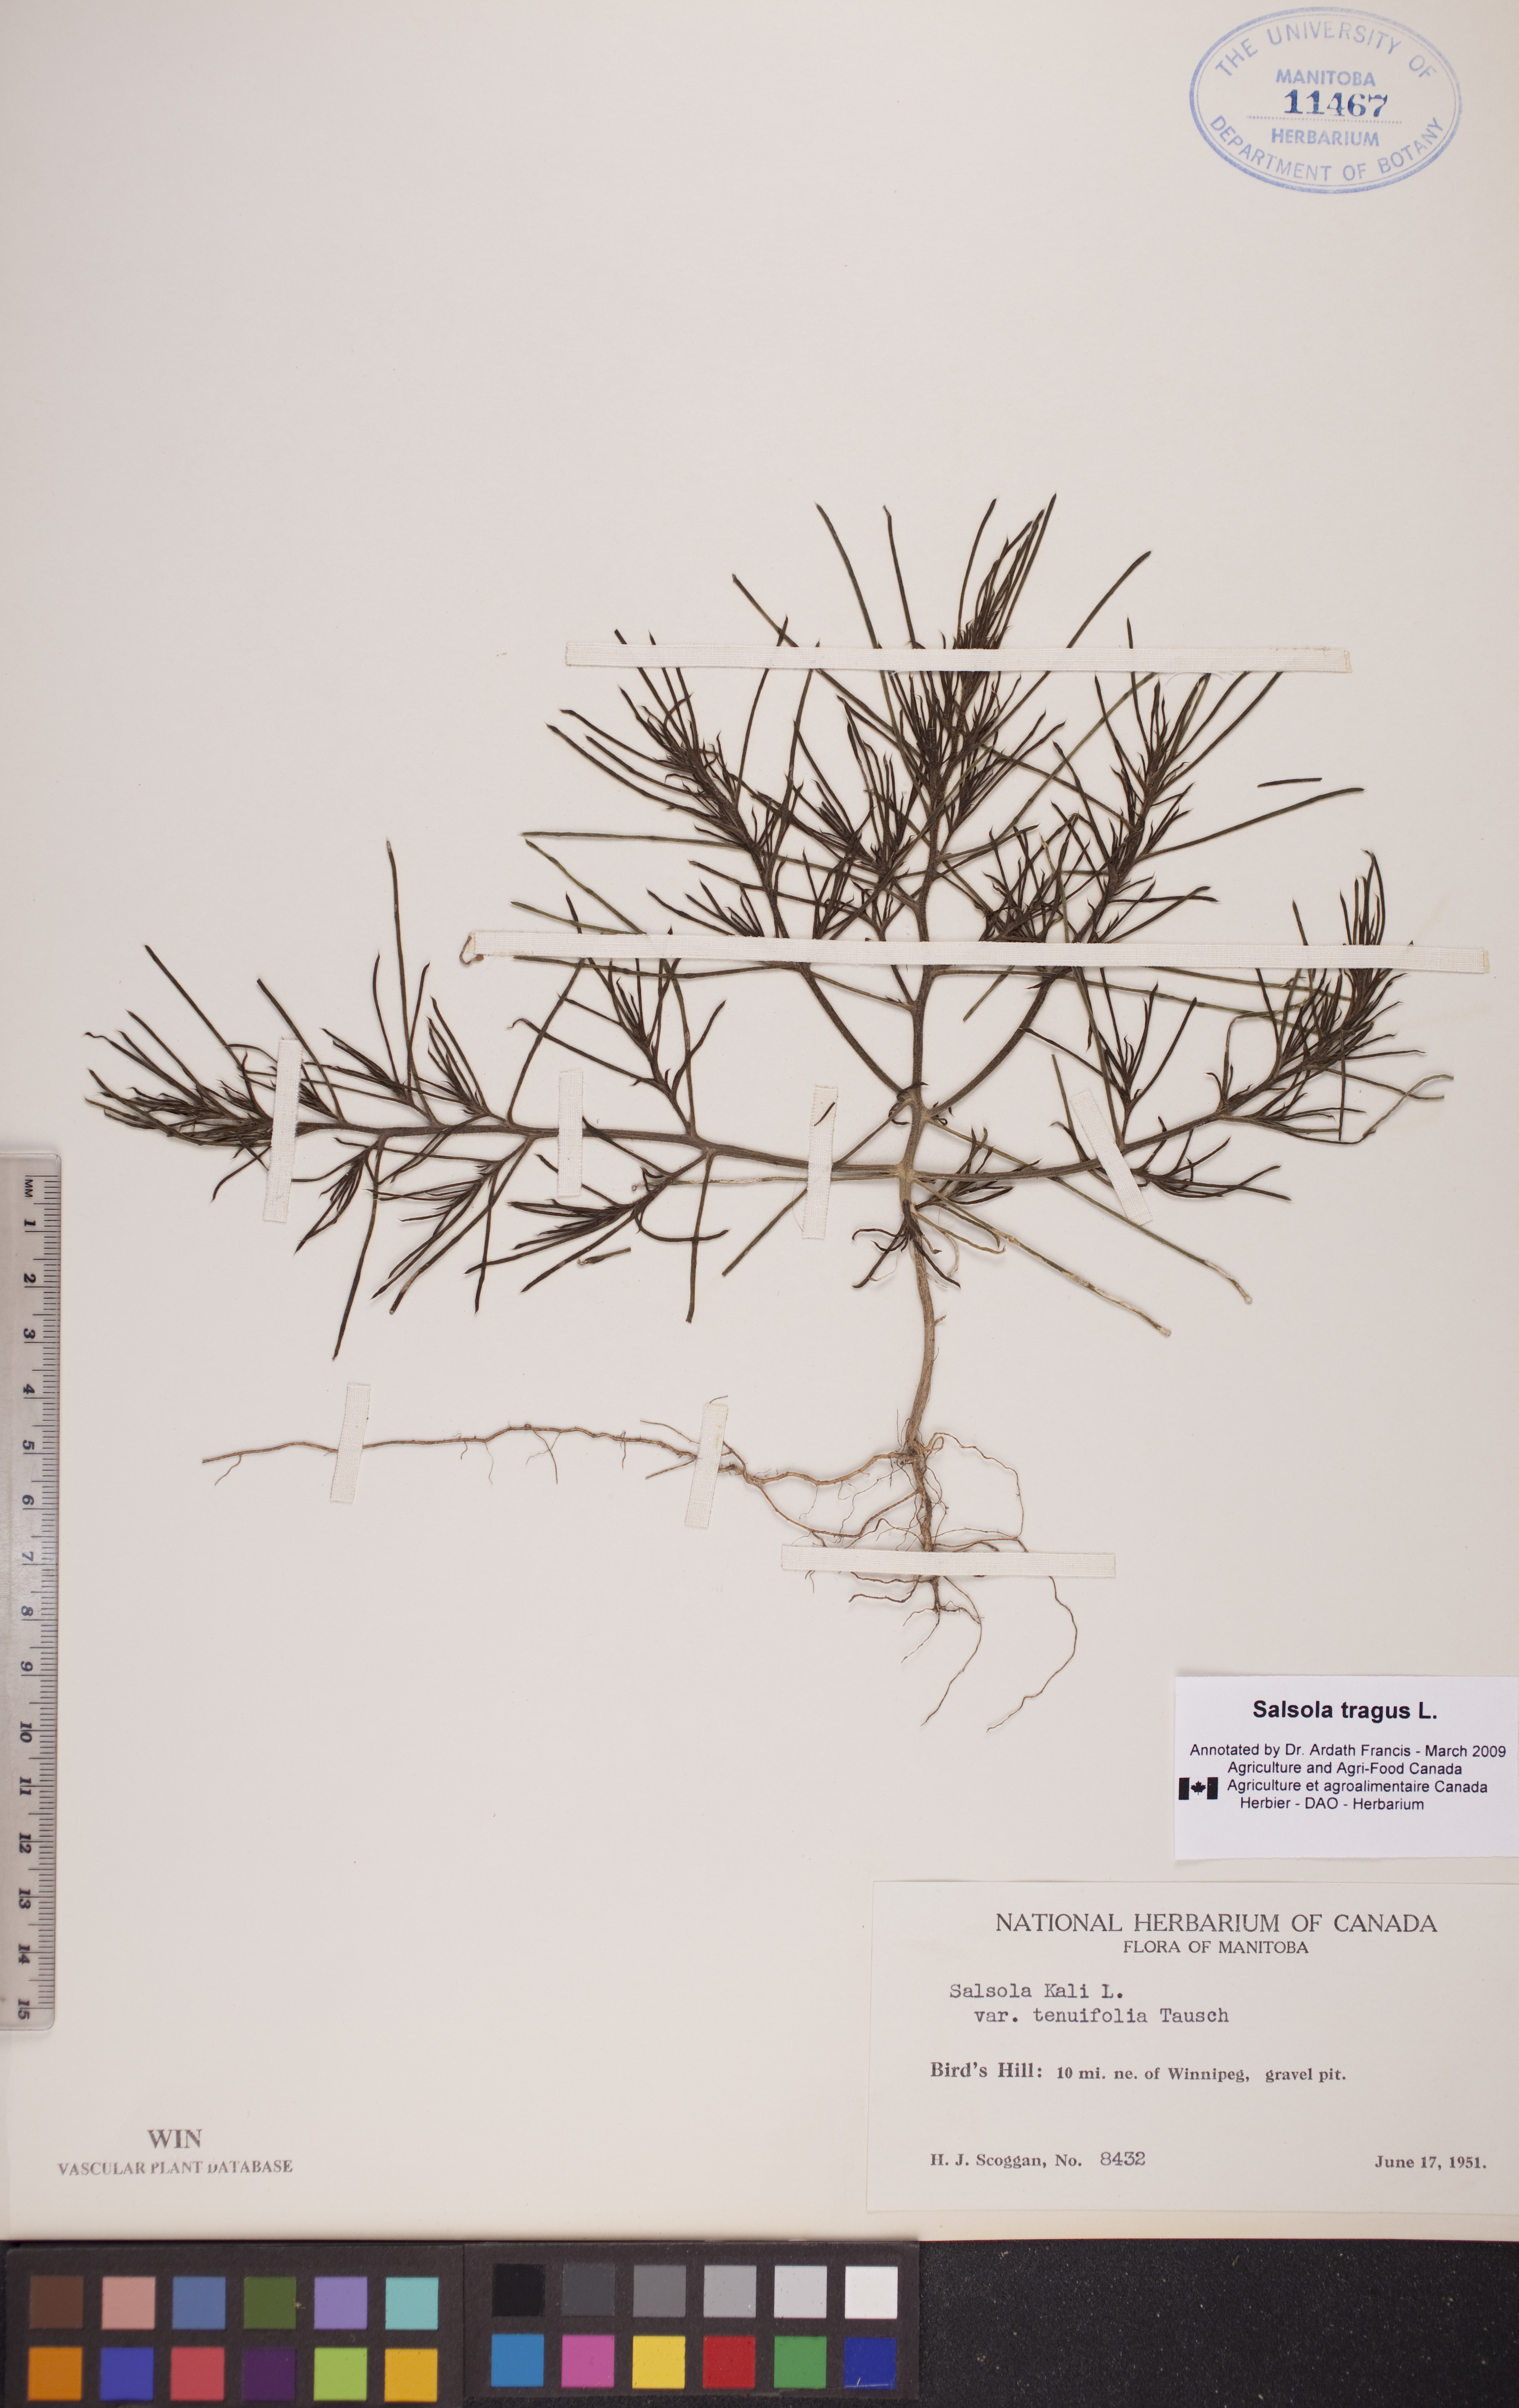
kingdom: Plantae
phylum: Tracheophyta
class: Magnoliopsida
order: Caryophyllales
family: Amaranthaceae
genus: Salsola
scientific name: Salsola tragus
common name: Prickly russian thistle
